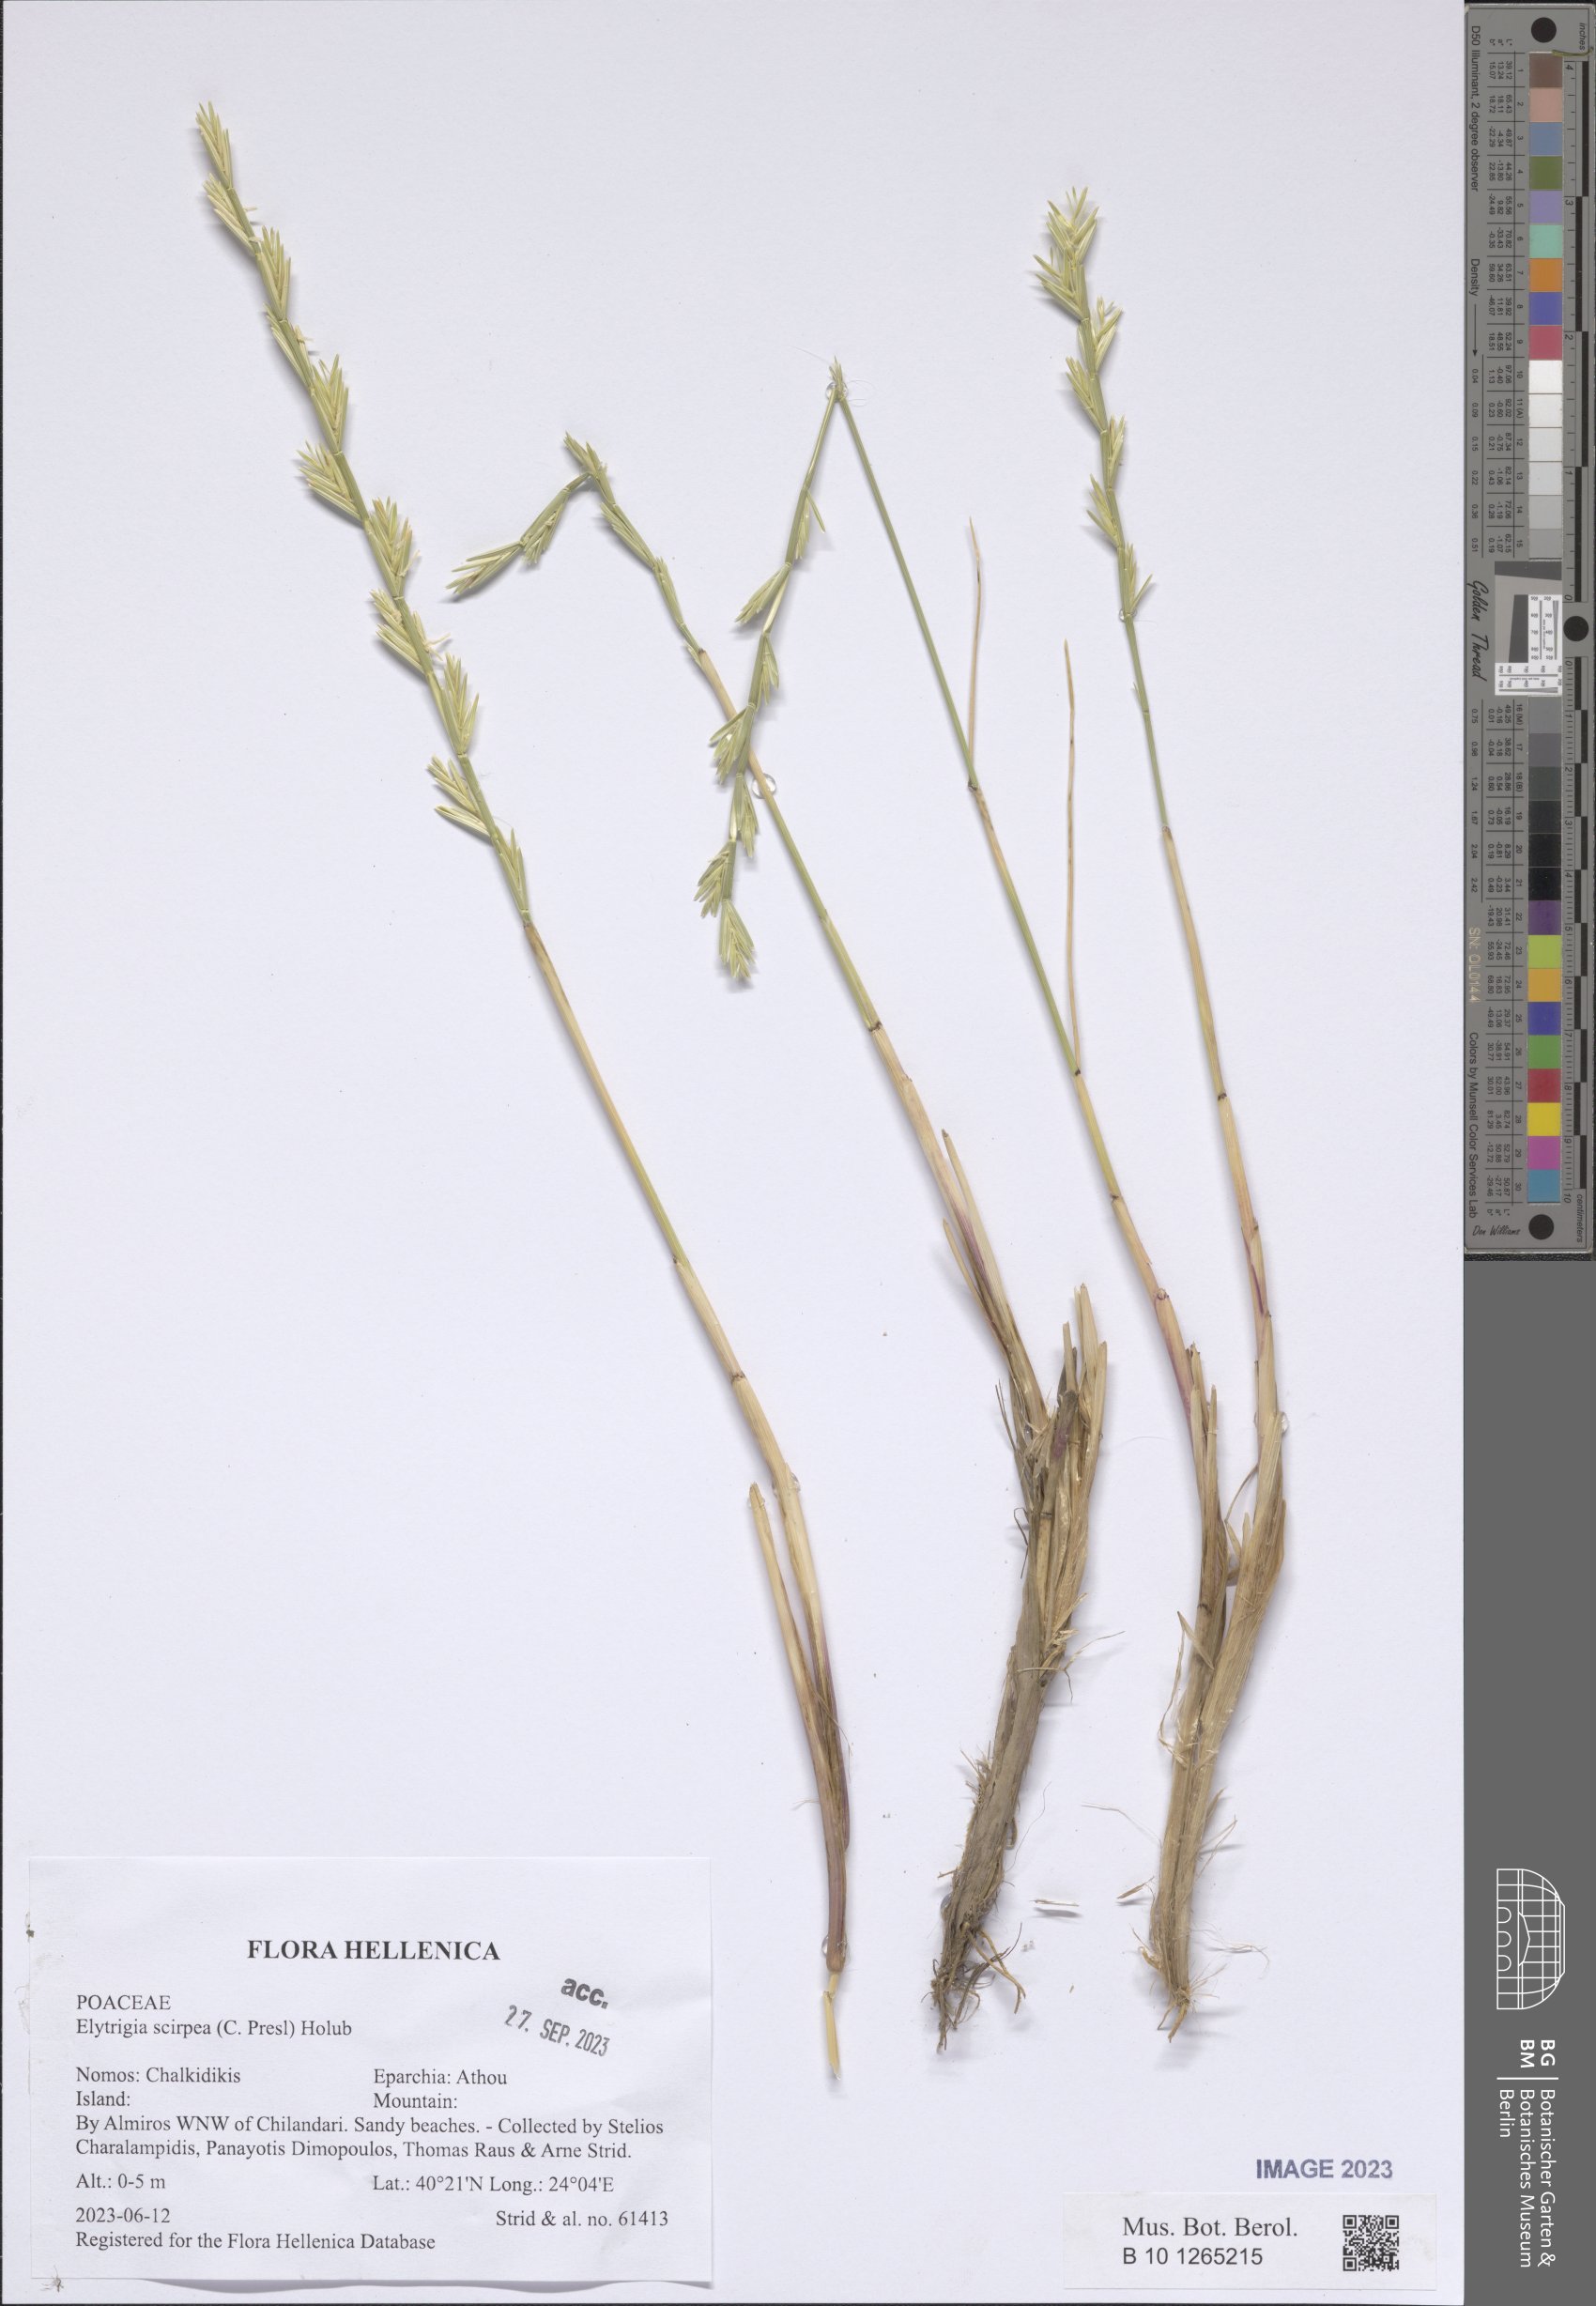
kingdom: Plantae
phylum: Tracheophyta
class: Liliopsida
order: Poales
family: Poaceae
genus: Thinopyrum
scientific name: Thinopyrum elongatum
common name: Tall wheatgrass
